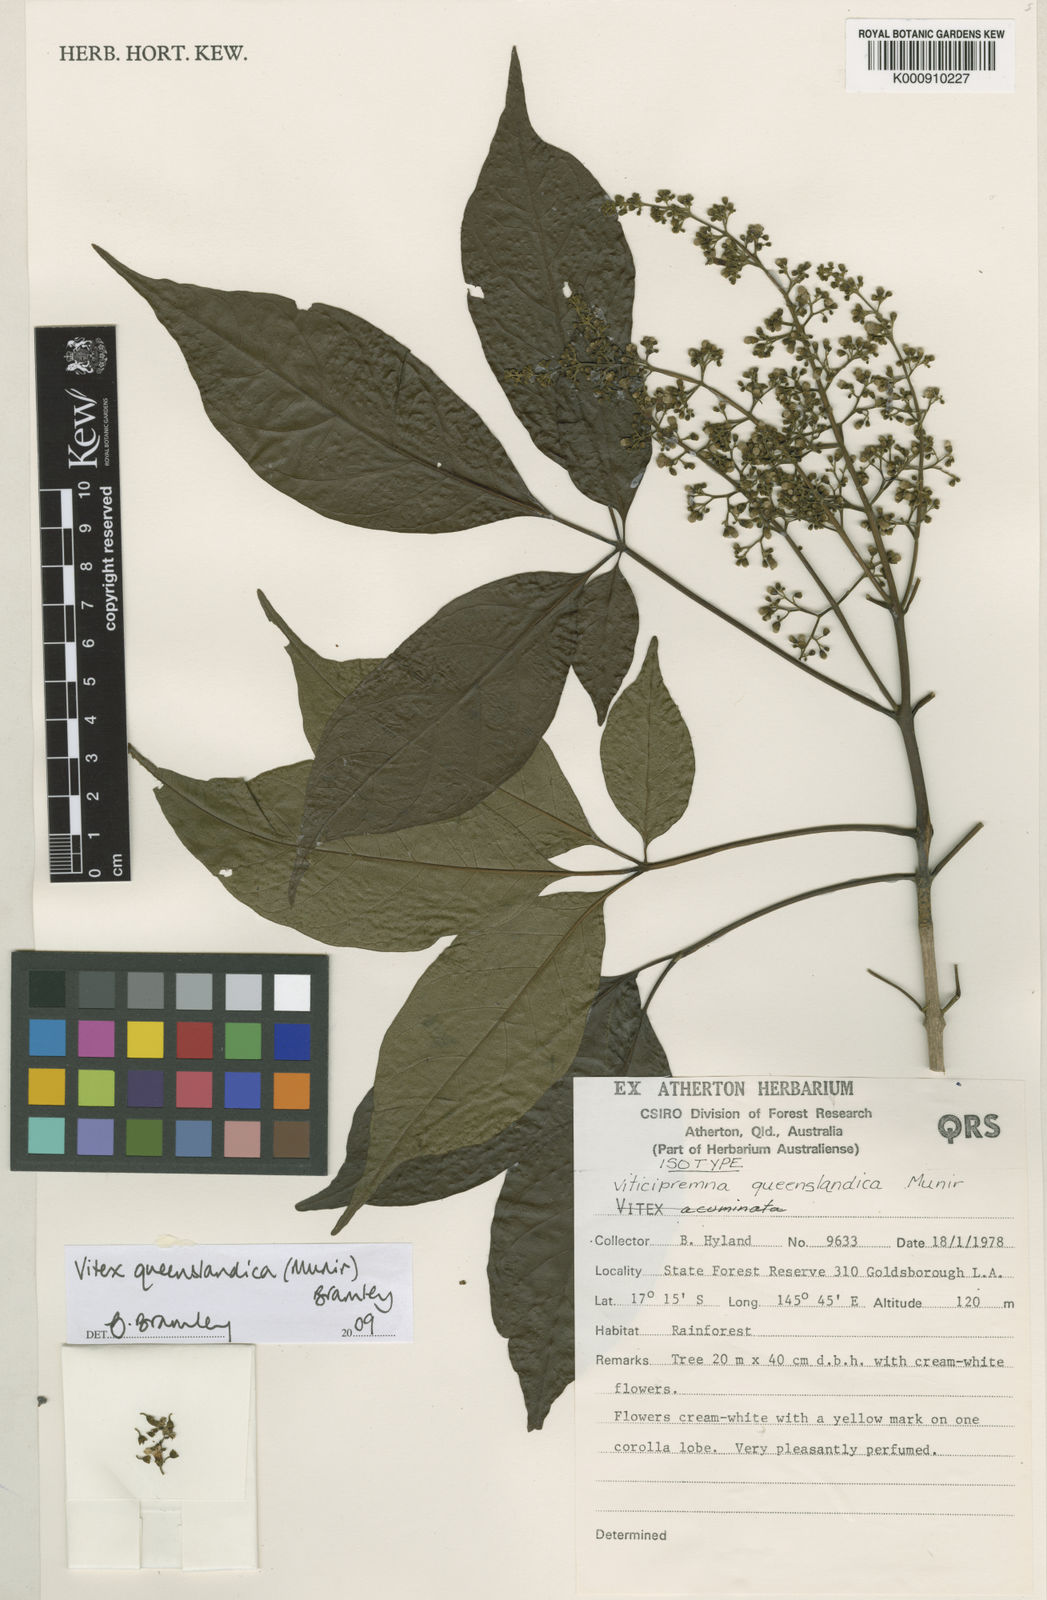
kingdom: Plantae
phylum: Tracheophyta
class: Magnoliopsida
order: Lamiales
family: Lamiaceae
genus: Vitex
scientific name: Vitex queenslandica
